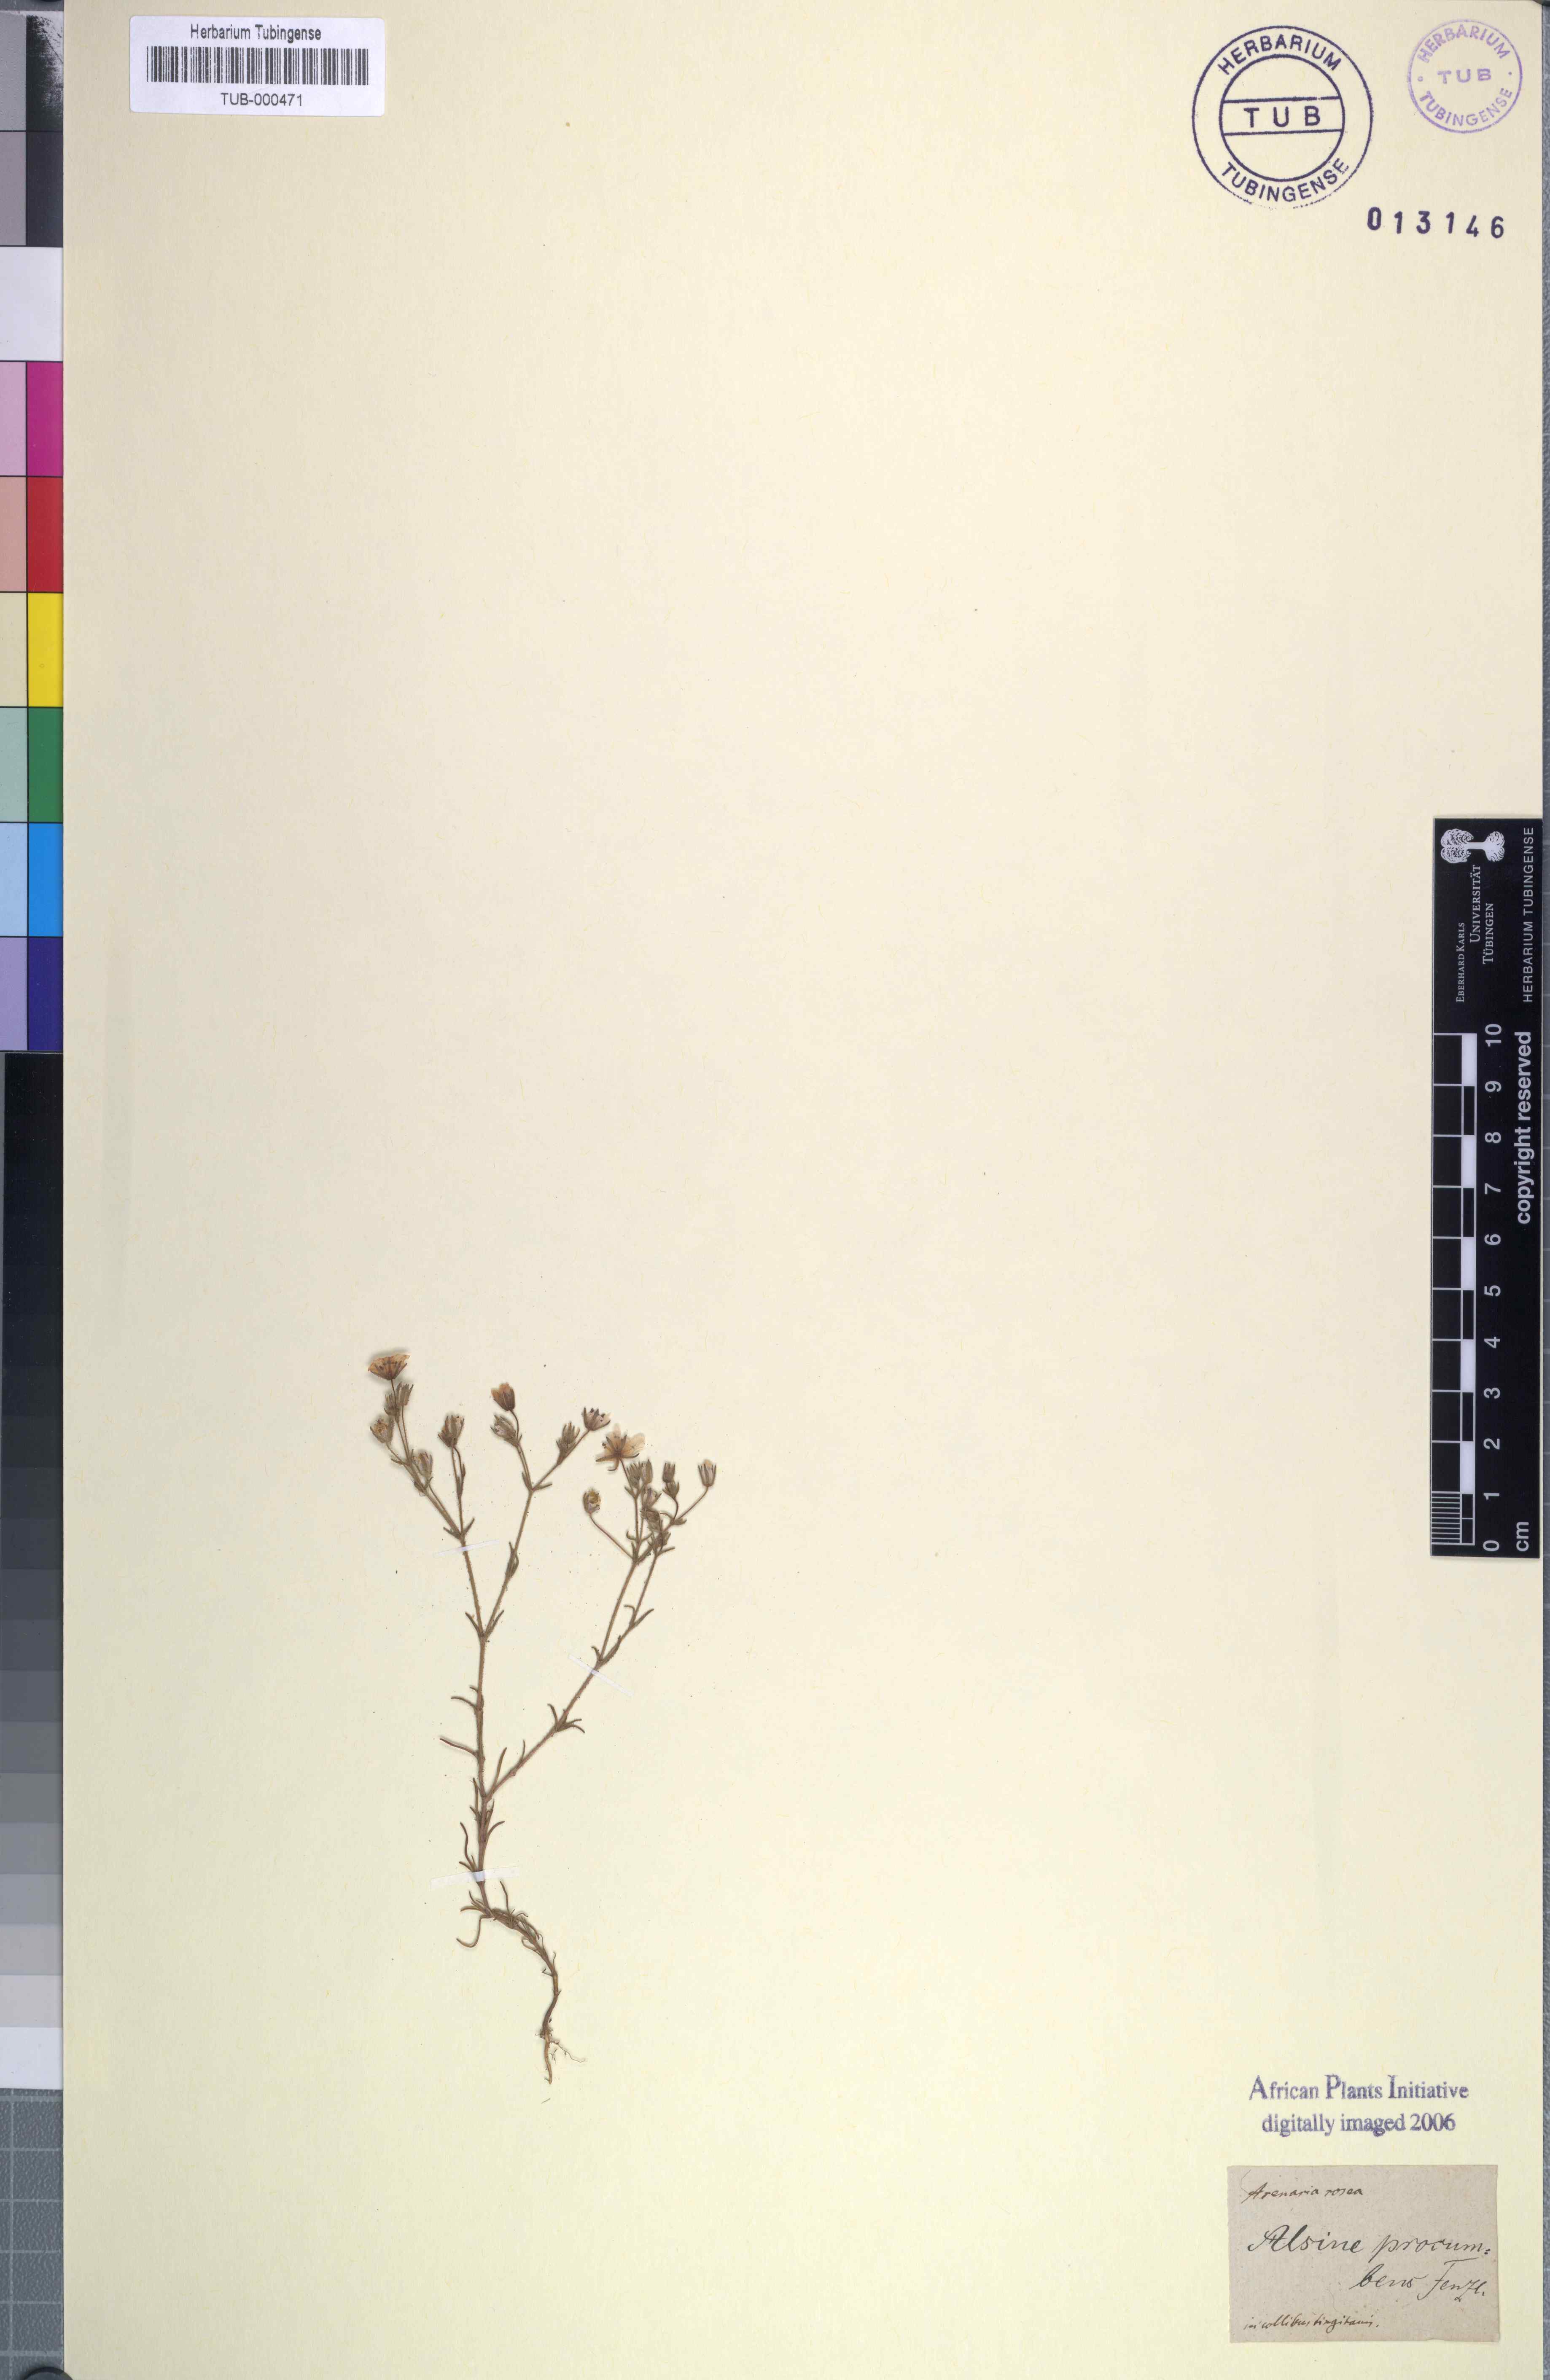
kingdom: Plantae
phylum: Tracheophyta
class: Magnoliopsida
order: Caryophyllales
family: Caryophyllaceae
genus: Rhodalsine
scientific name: Rhodalsine geniculata
